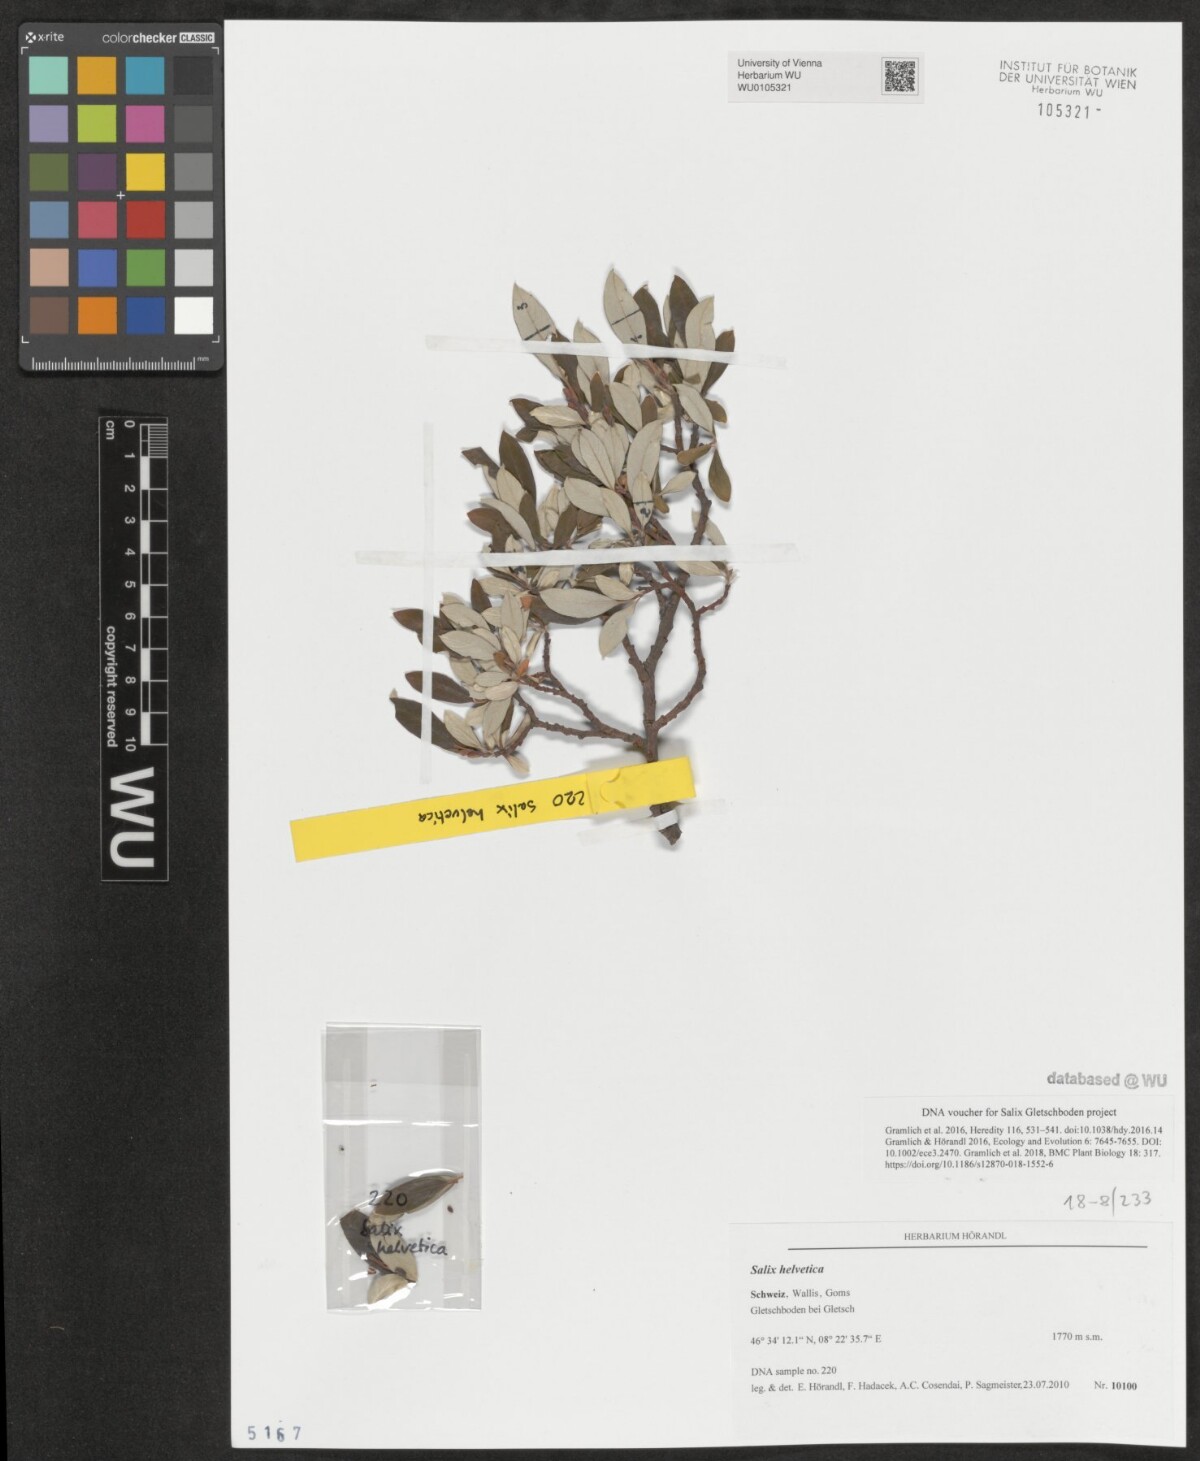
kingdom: Plantae
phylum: Tracheophyta
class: Magnoliopsida
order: Malpighiales
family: Salicaceae
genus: Salix
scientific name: Salix helvetica
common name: Swiss willow
